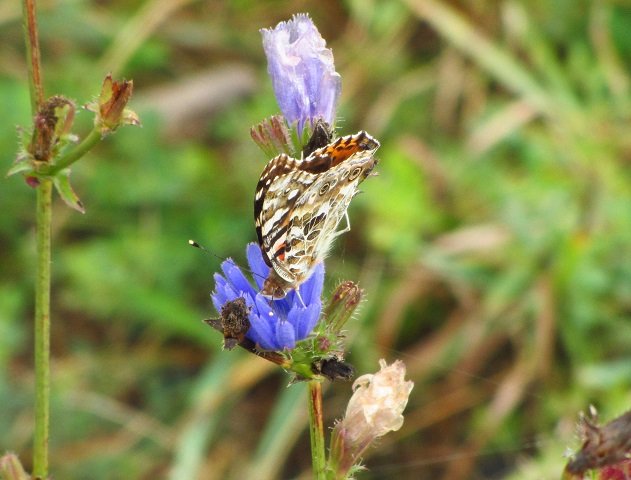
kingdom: Animalia
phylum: Arthropoda
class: Insecta
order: Lepidoptera
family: Nymphalidae
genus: Vanessa
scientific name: Vanessa cardui
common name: Painted Lady
